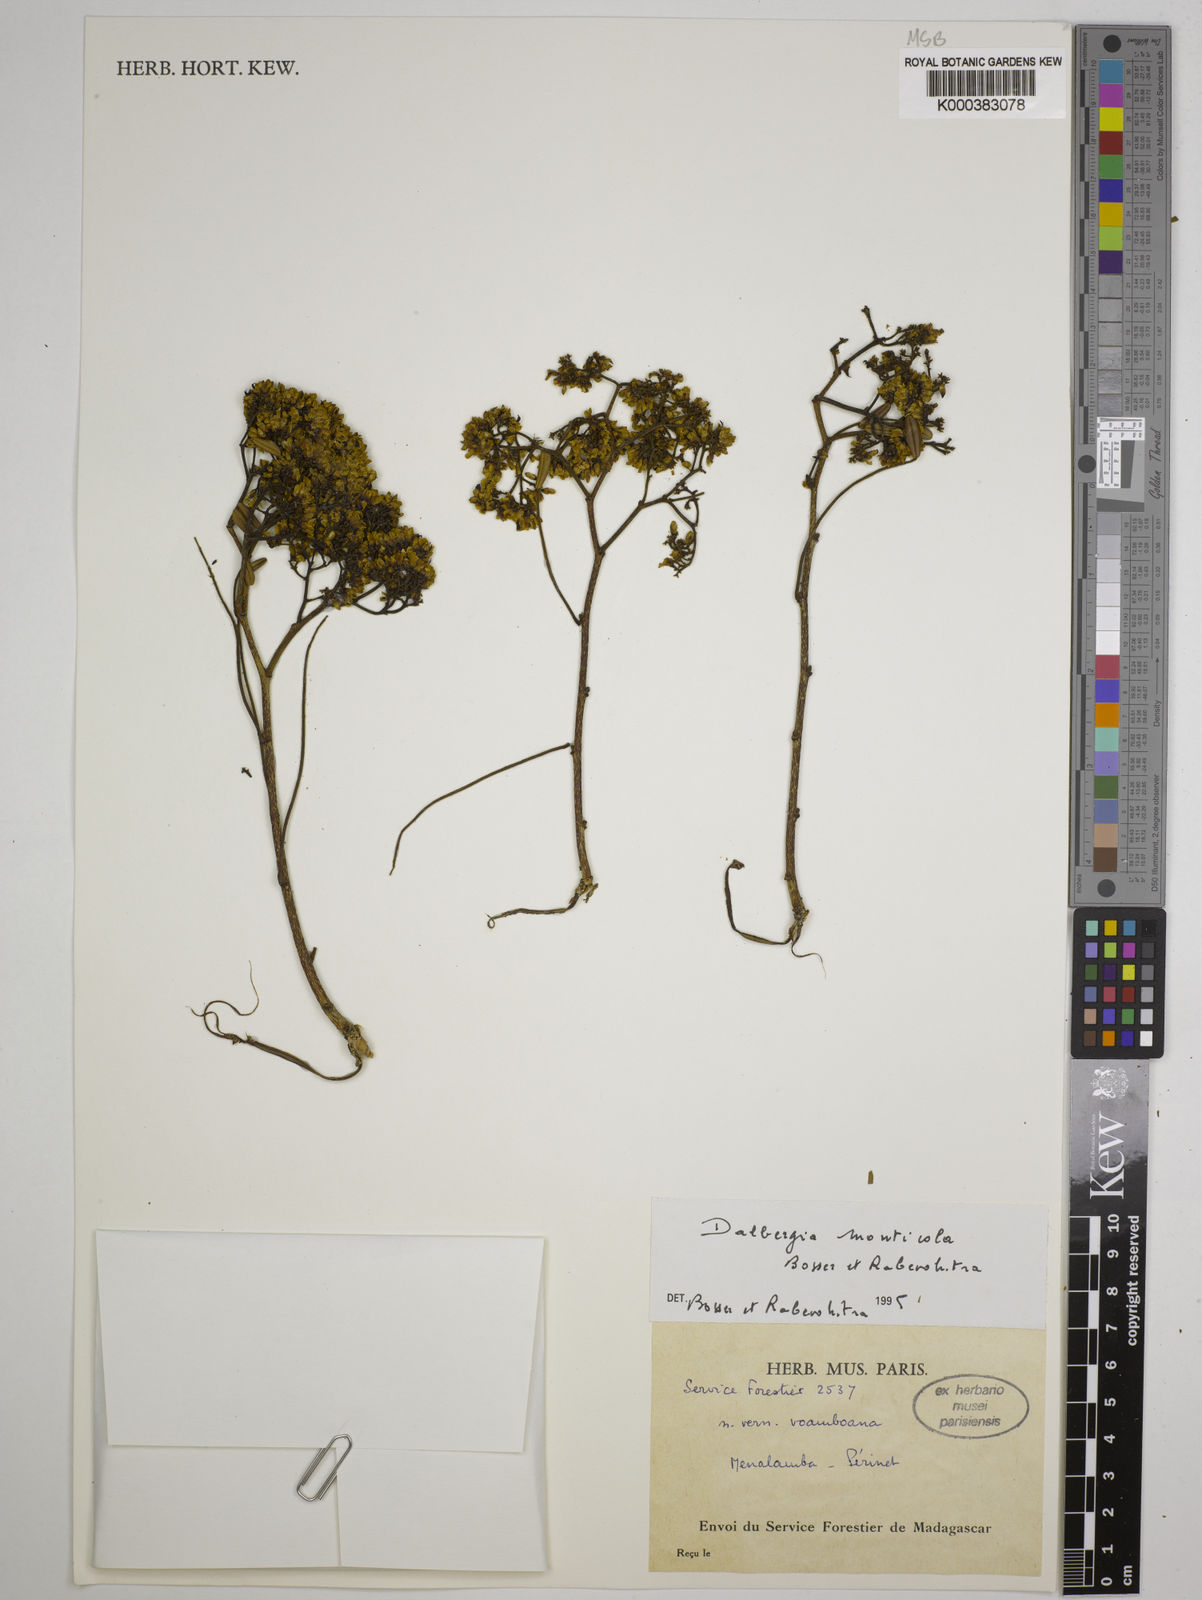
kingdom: Plantae
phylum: Tracheophyta
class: Magnoliopsida
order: Fabales
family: Fabaceae
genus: Dalbergia
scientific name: Dalbergia monticola
